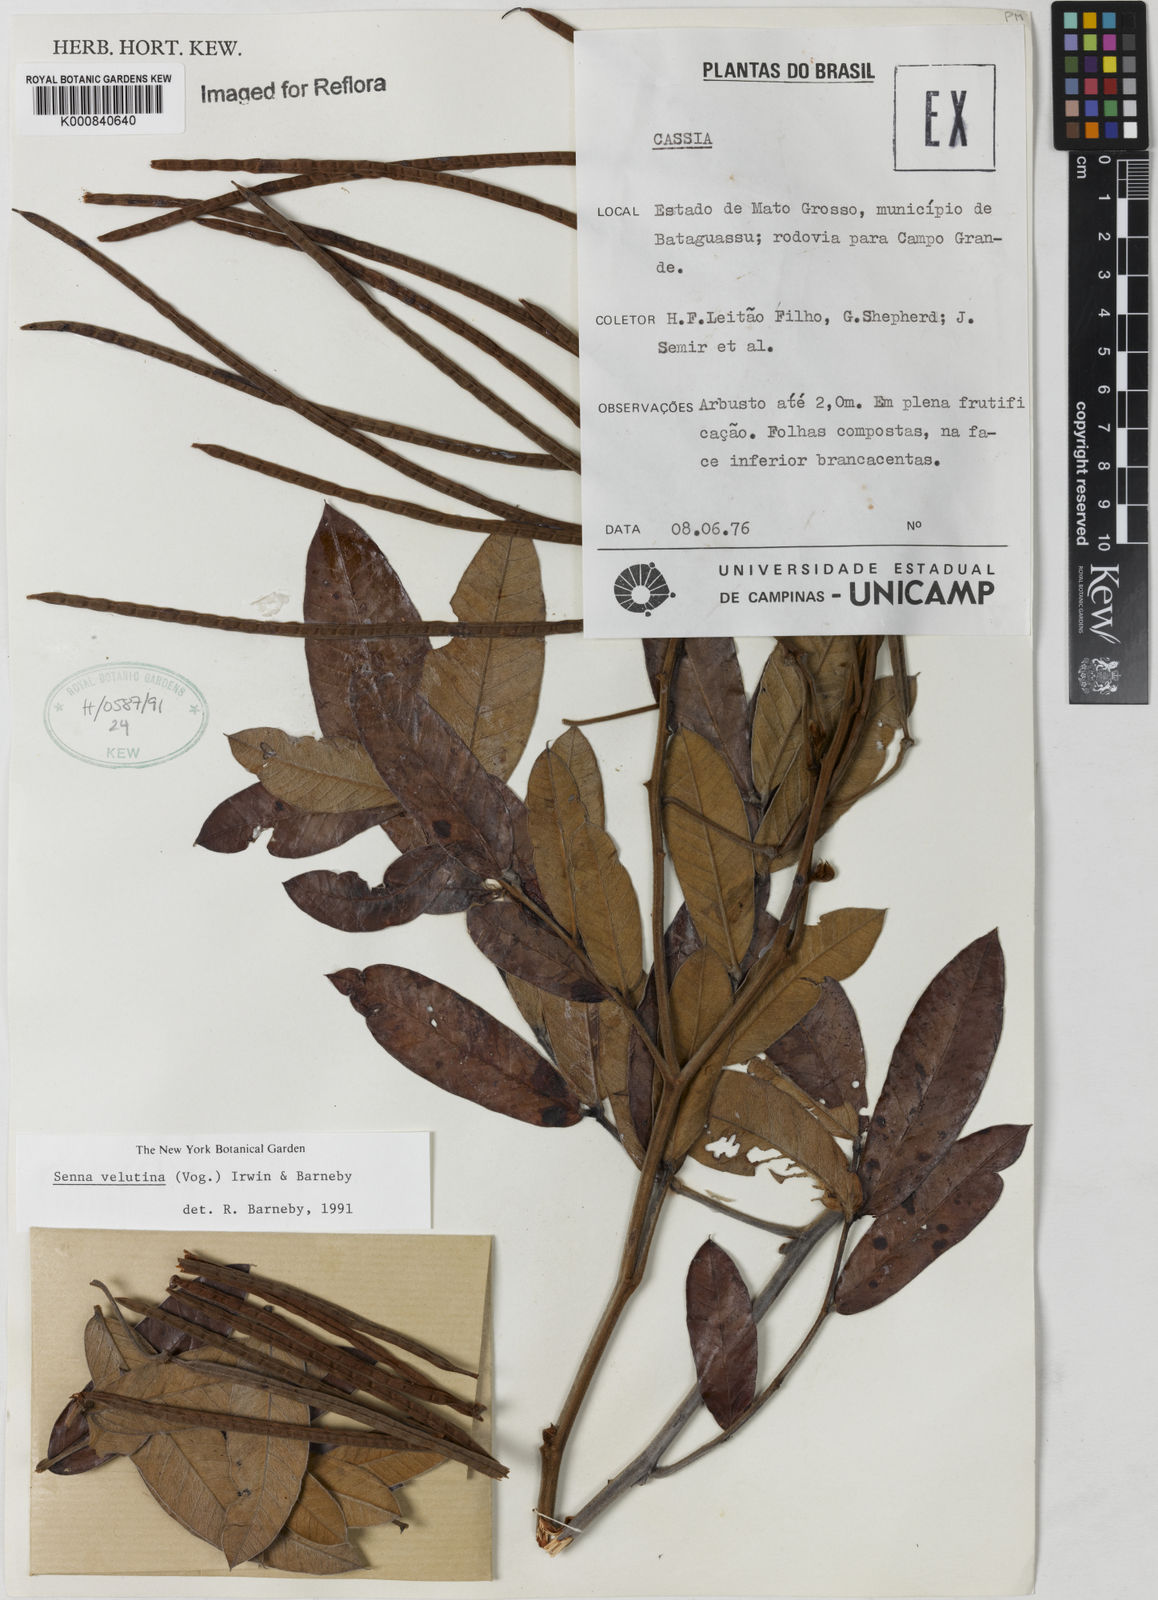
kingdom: Plantae
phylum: Tracheophyta
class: Magnoliopsida
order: Fabales
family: Fabaceae
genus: Senna
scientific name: Senna velutina
